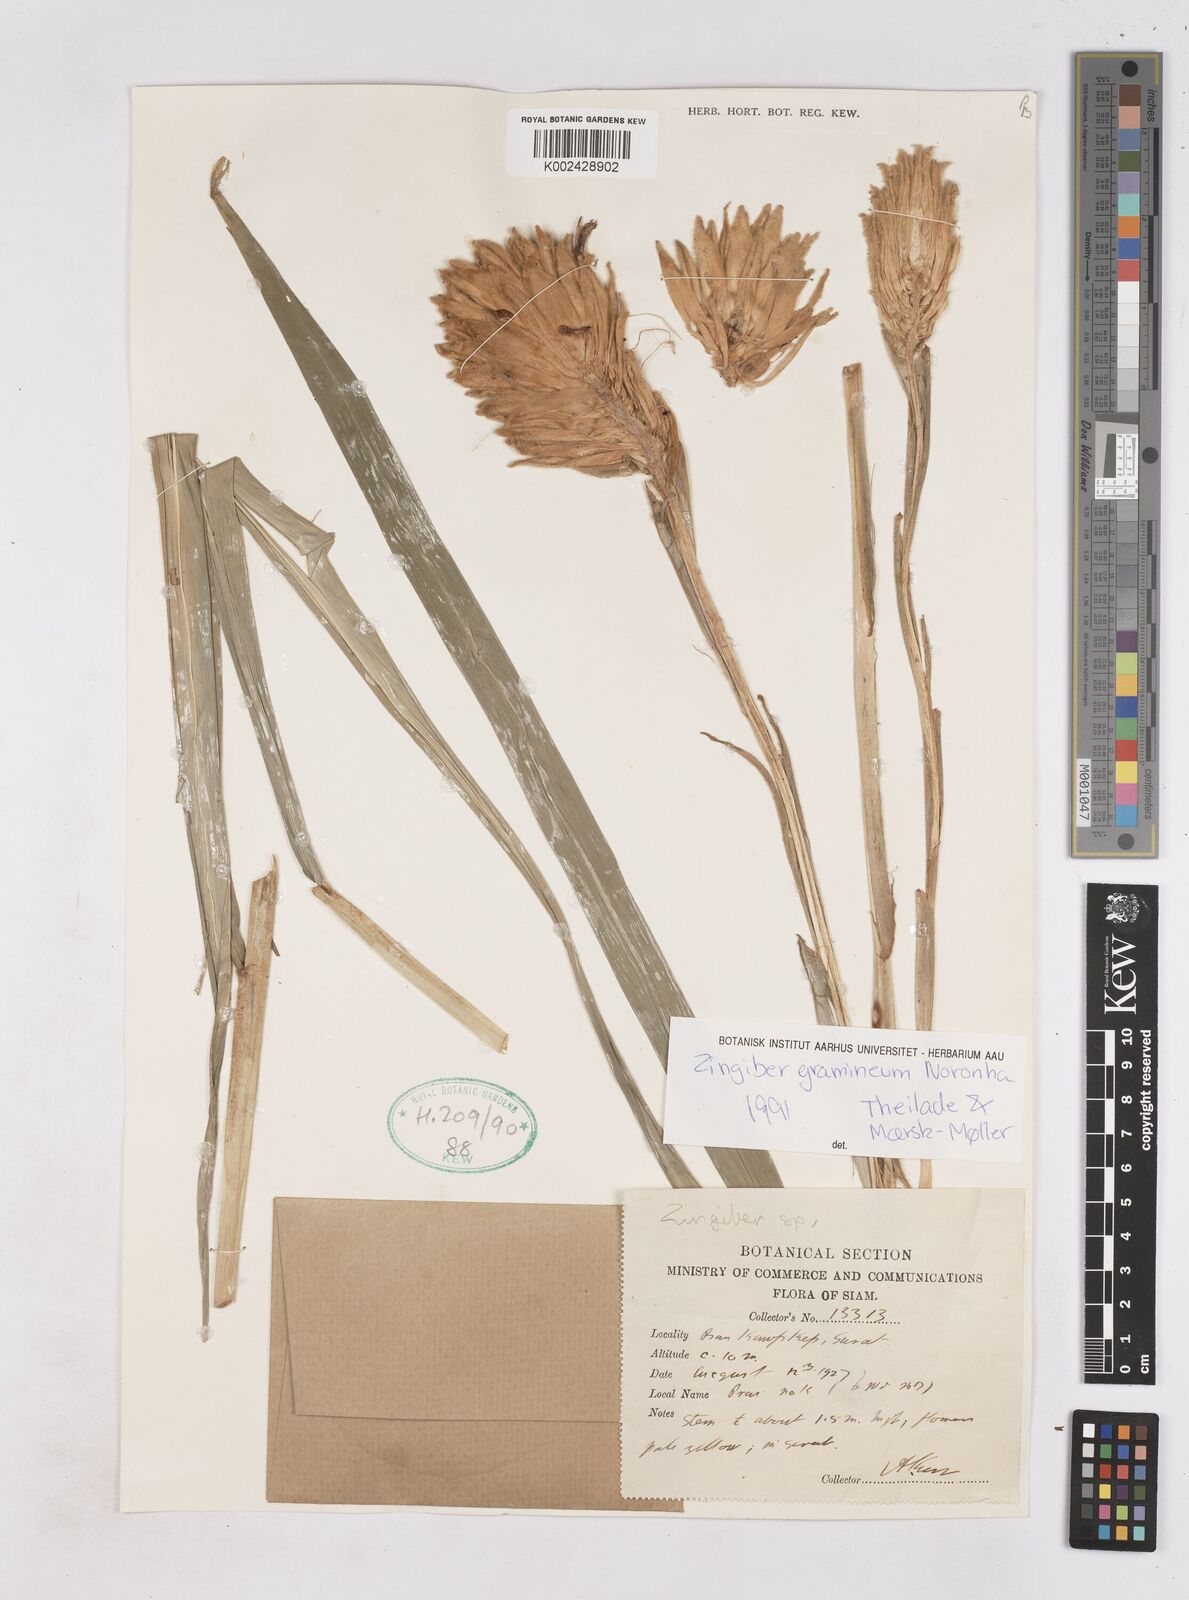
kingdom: Plantae
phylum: Tracheophyta
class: Liliopsida
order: Zingiberales
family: Zingiberaceae
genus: Zingiber
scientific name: Zingiber gramineum
